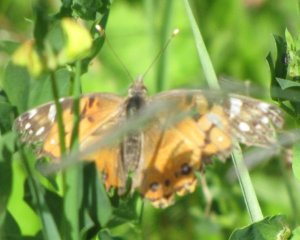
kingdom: Animalia
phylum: Arthropoda
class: Insecta
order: Lepidoptera
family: Nymphalidae
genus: Vanessa
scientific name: Vanessa virginiensis
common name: American Lady
